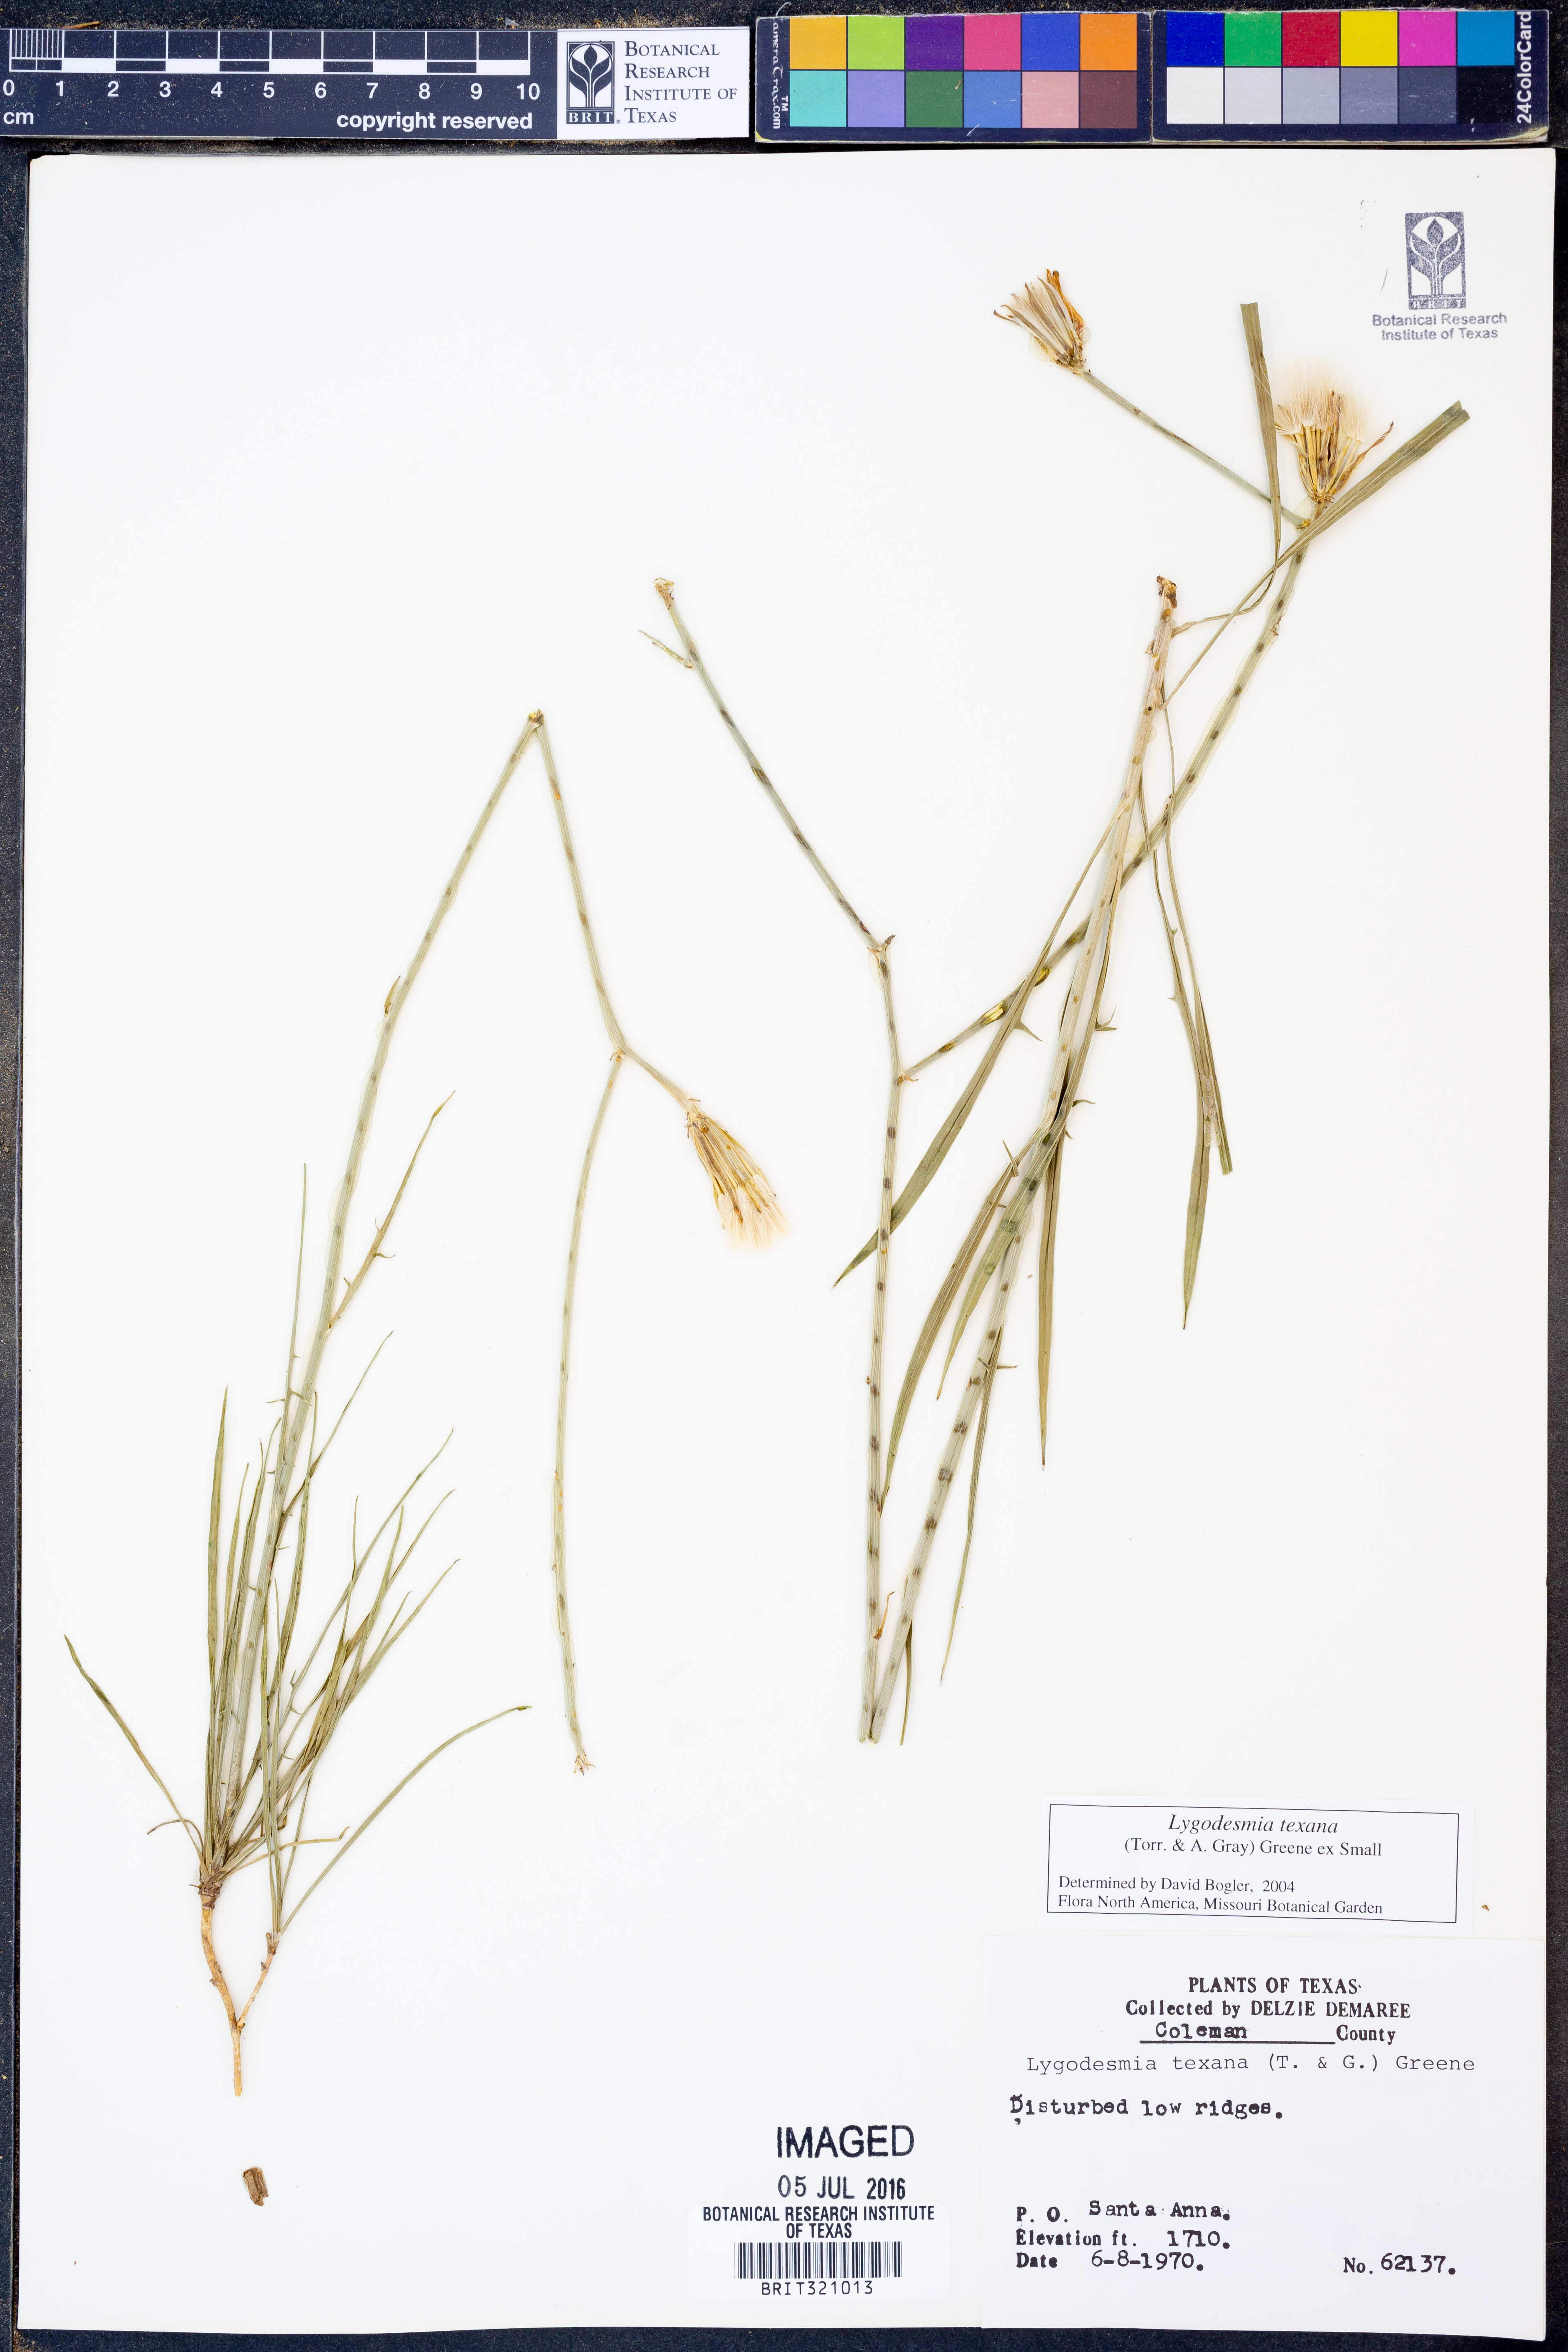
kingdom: Plantae
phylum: Tracheophyta
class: Magnoliopsida
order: Asterales
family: Asteraceae
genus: Lygodesmia
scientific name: Lygodesmia texana
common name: Texas skeleton-plant
